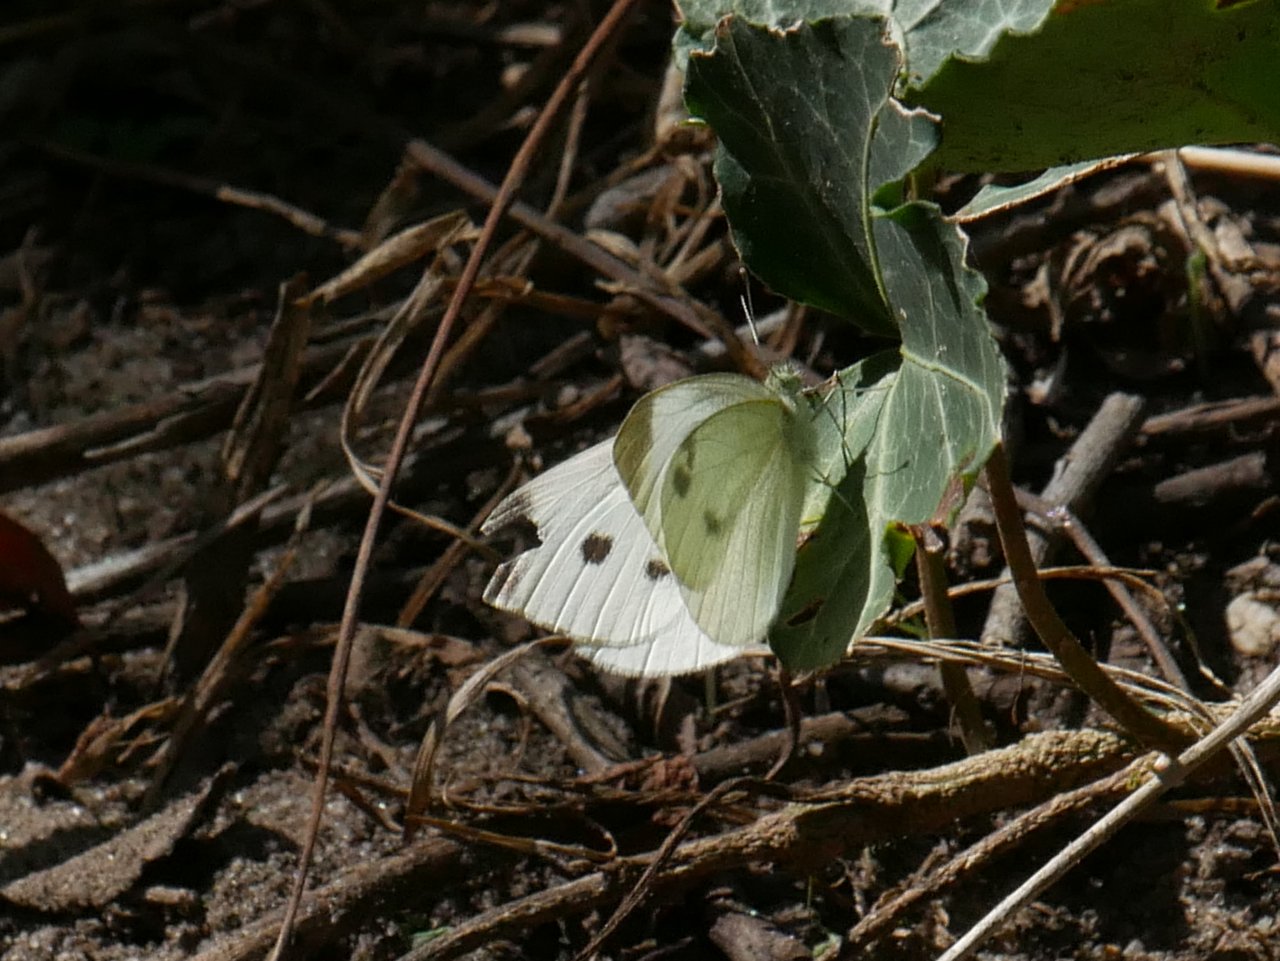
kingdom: Animalia
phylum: Arthropoda
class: Insecta
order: Lepidoptera
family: Pieridae
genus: Pieris
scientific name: Pieris rapae
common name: Cabbage White
